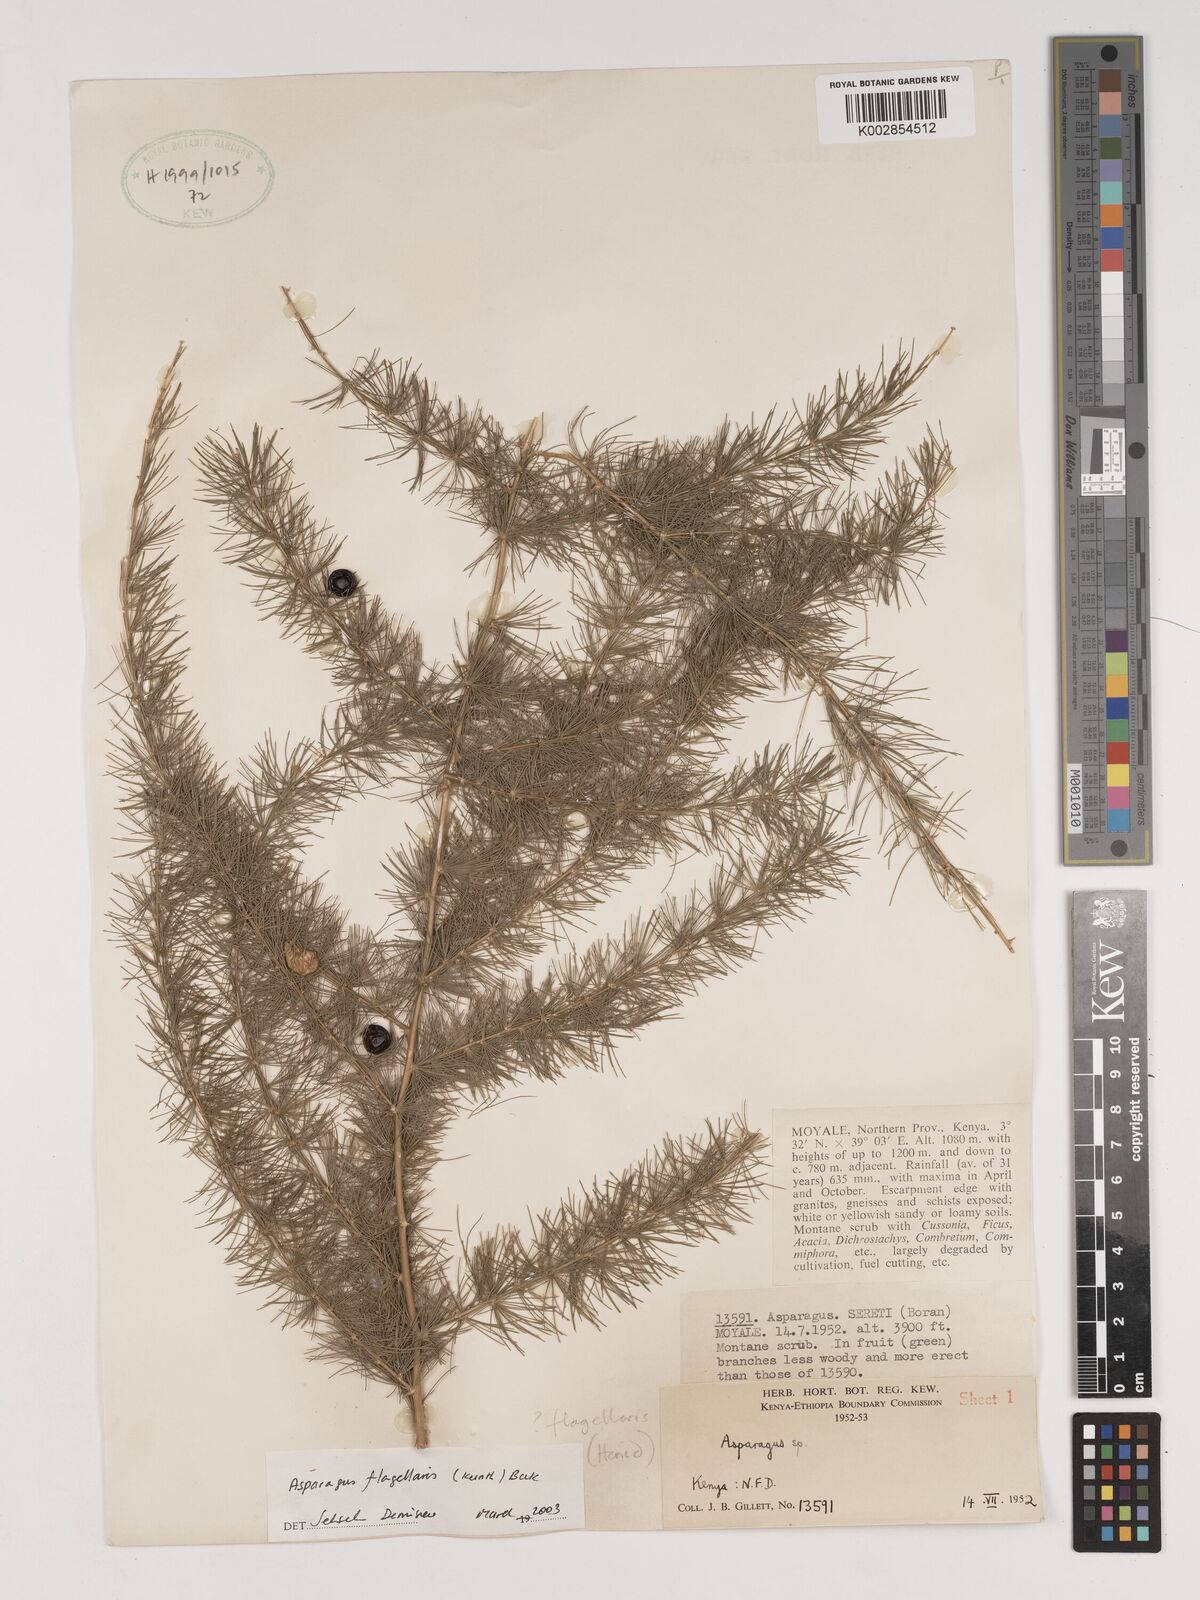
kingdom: Plantae
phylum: Tracheophyta
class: Liliopsida
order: Asparagales
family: Asparagaceae
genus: Asparagus
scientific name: Asparagus flagellaris
